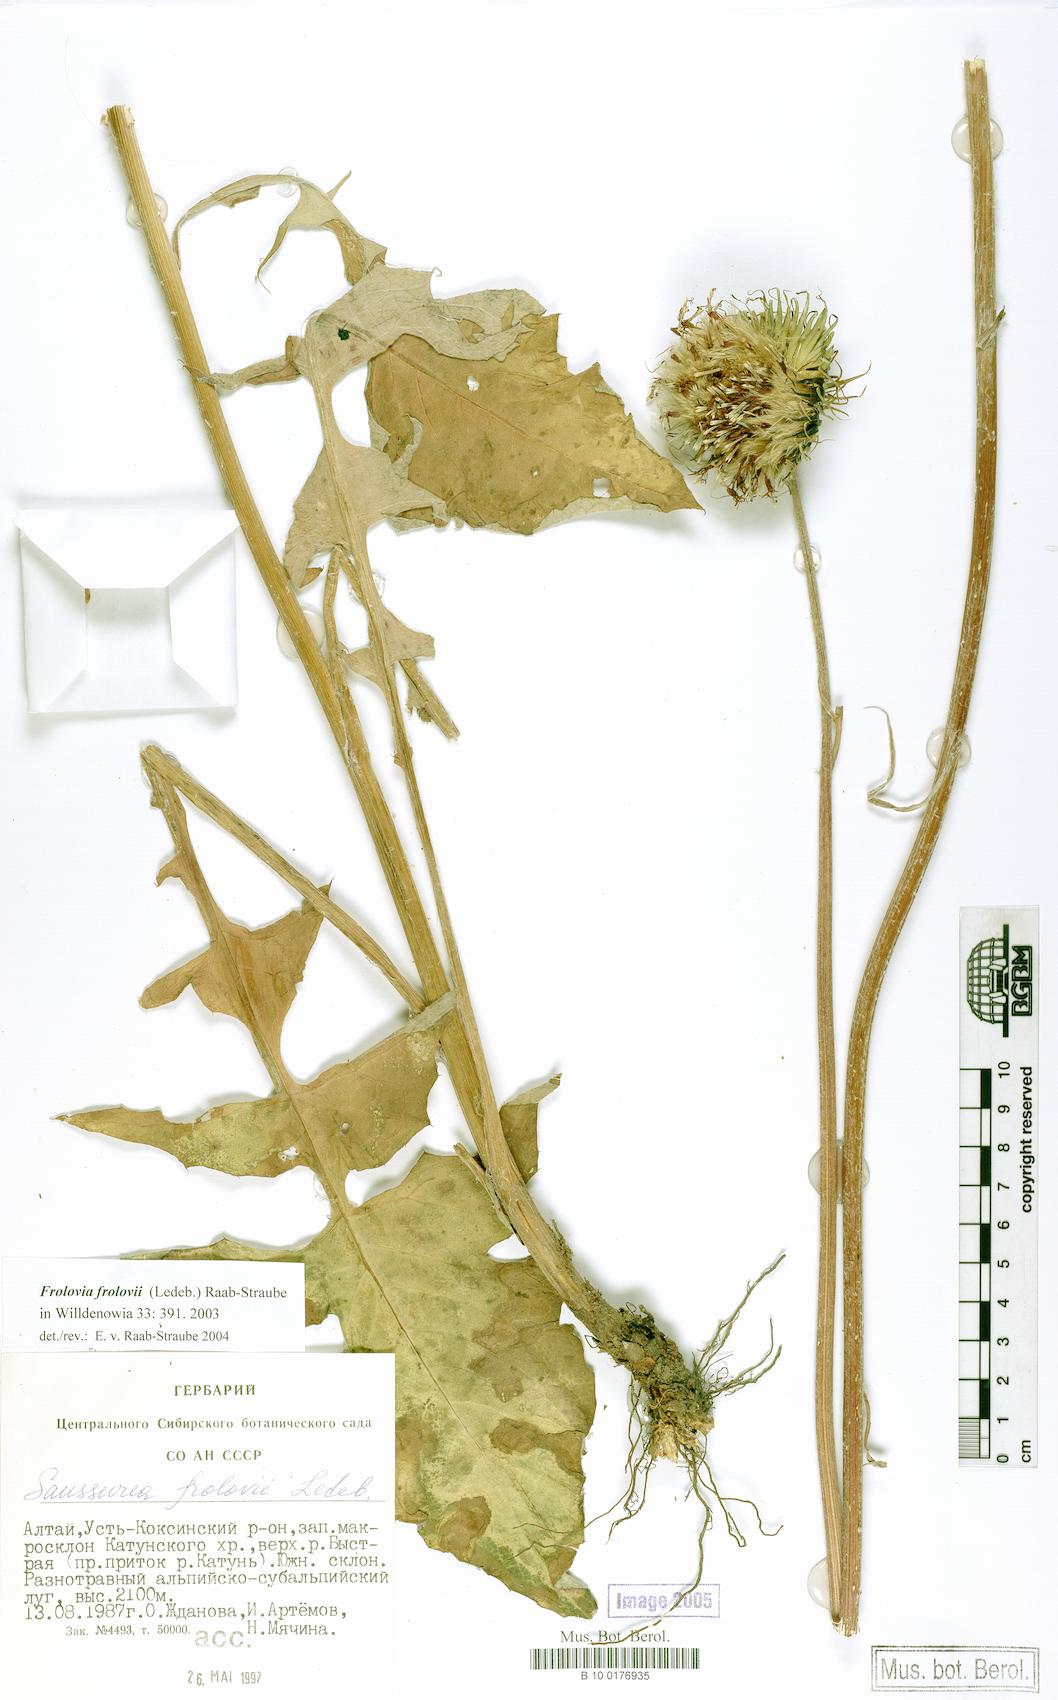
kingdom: Plantae
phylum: Tracheophyta
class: Magnoliopsida
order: Asterales
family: Asteraceae
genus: Dolomiaea
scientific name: Dolomiaea Frolovia frolovii
